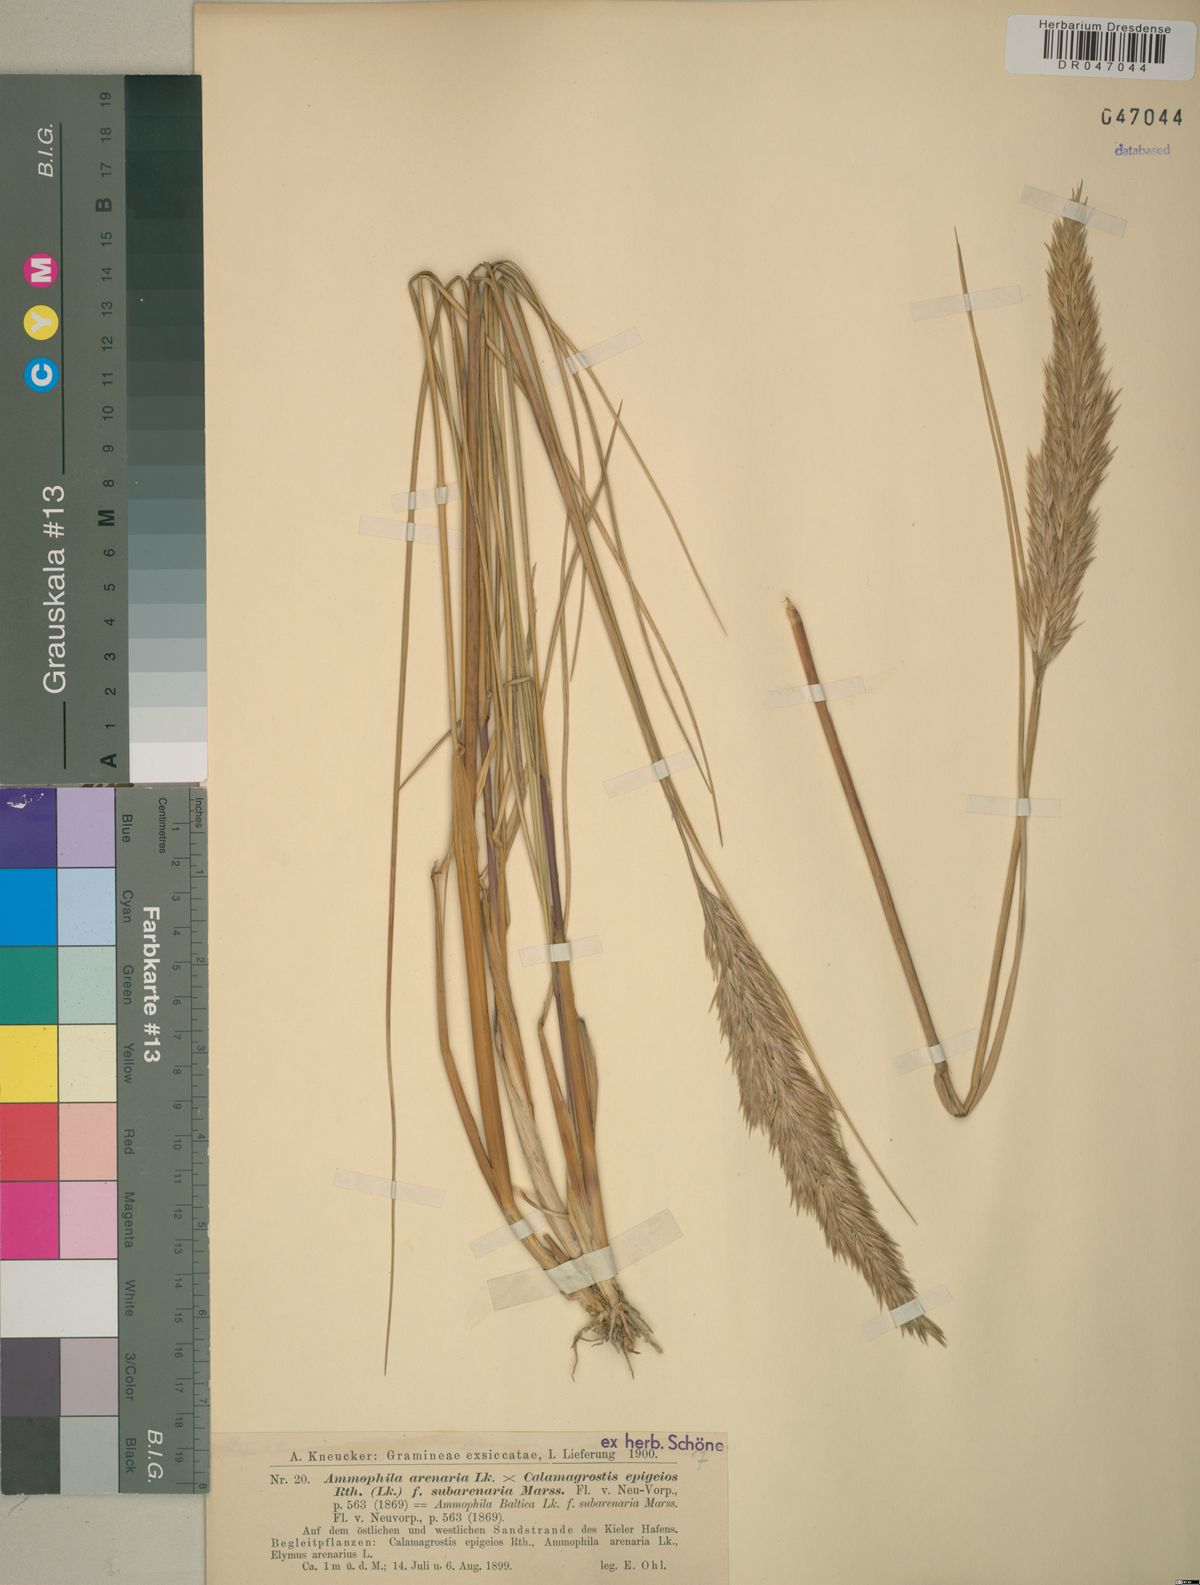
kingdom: Plantae
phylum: Tracheophyta
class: Liliopsida
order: Poales
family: Poaceae
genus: Calamagrostis
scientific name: Calamagrostis arenaria
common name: European beachgrass
